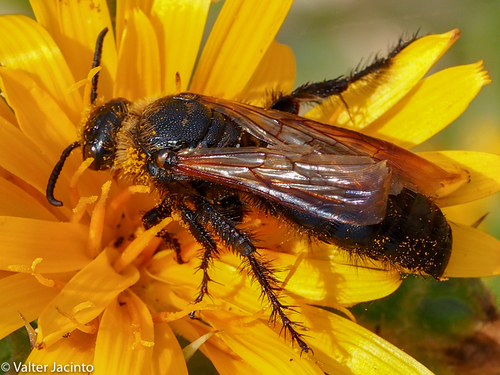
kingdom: Animalia
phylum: Arthropoda
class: Insecta
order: Hymenoptera
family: Scoliidae
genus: Campsomeriella
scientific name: Campsomeriella thoracica
